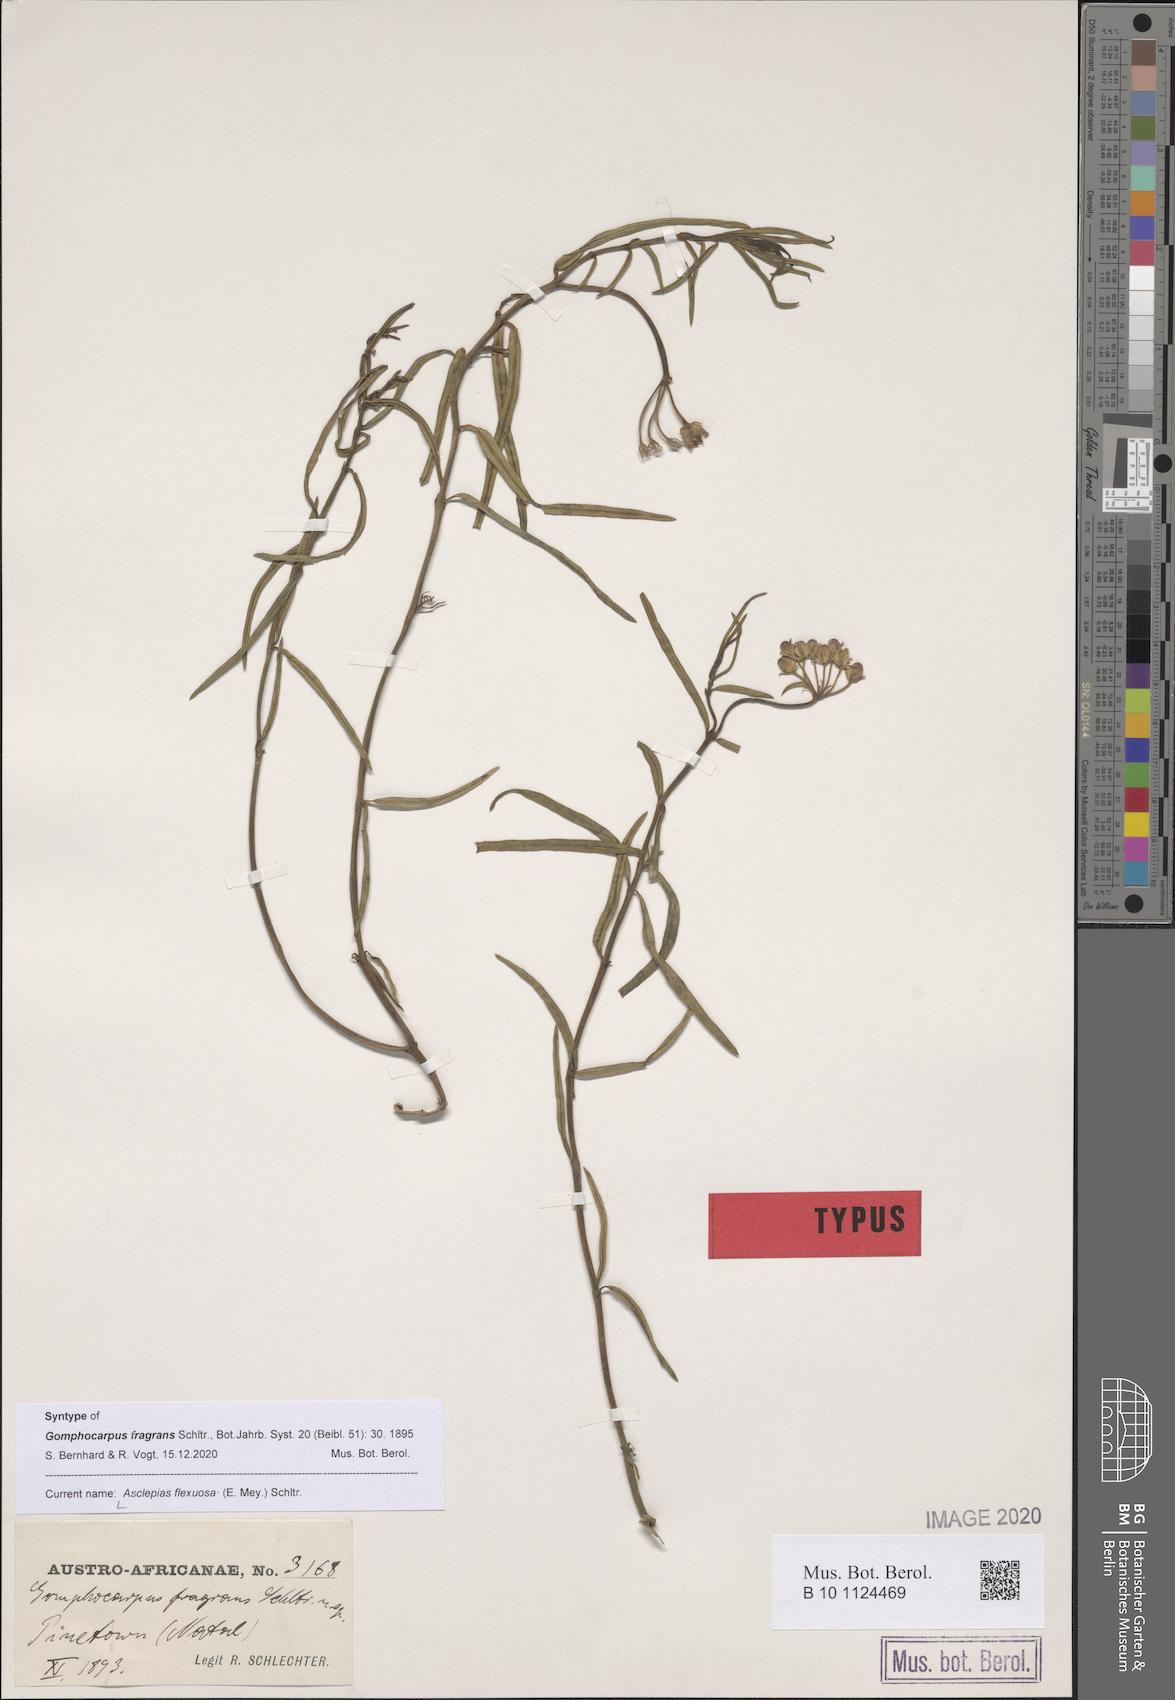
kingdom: Plantae
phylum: Tracheophyta
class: Magnoliopsida
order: Gentianales
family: Apocynaceae
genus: Asclepias
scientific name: Asclepias flexuosa
